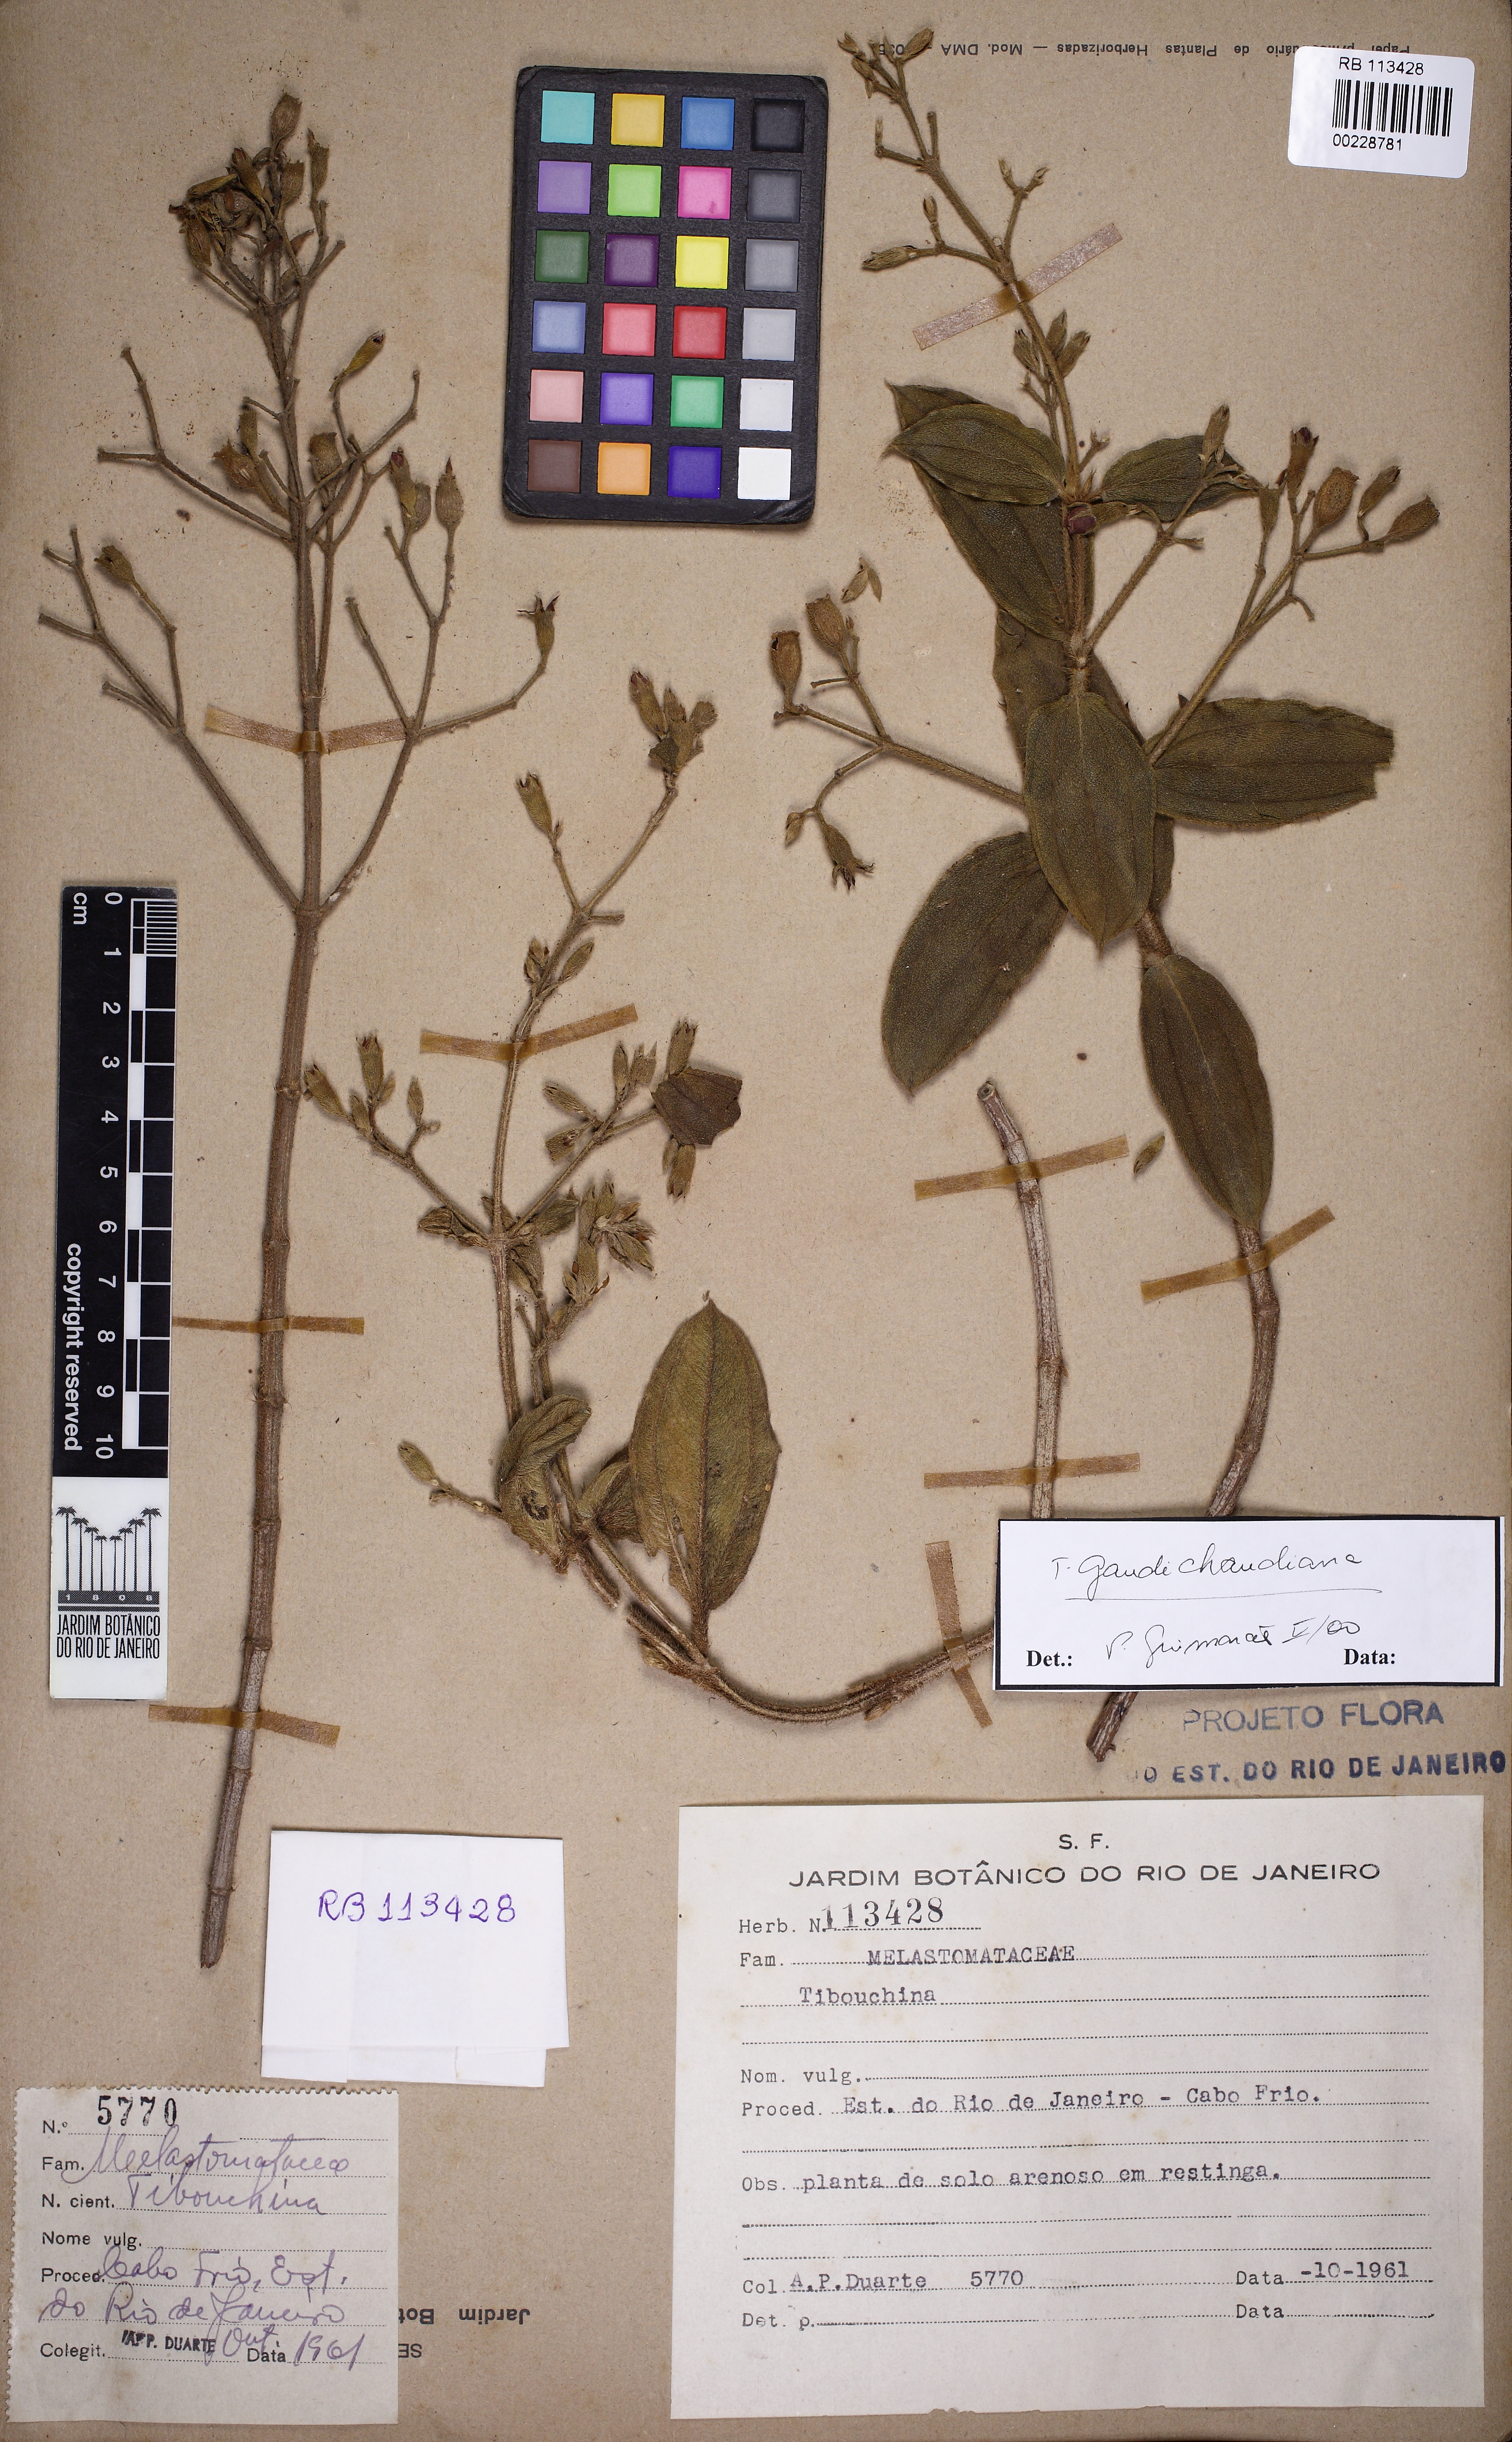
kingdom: Plantae
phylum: Tracheophyta
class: Magnoliopsida
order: Myrtales
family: Melastomataceae
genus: Tibouchina
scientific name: Tibouchina
